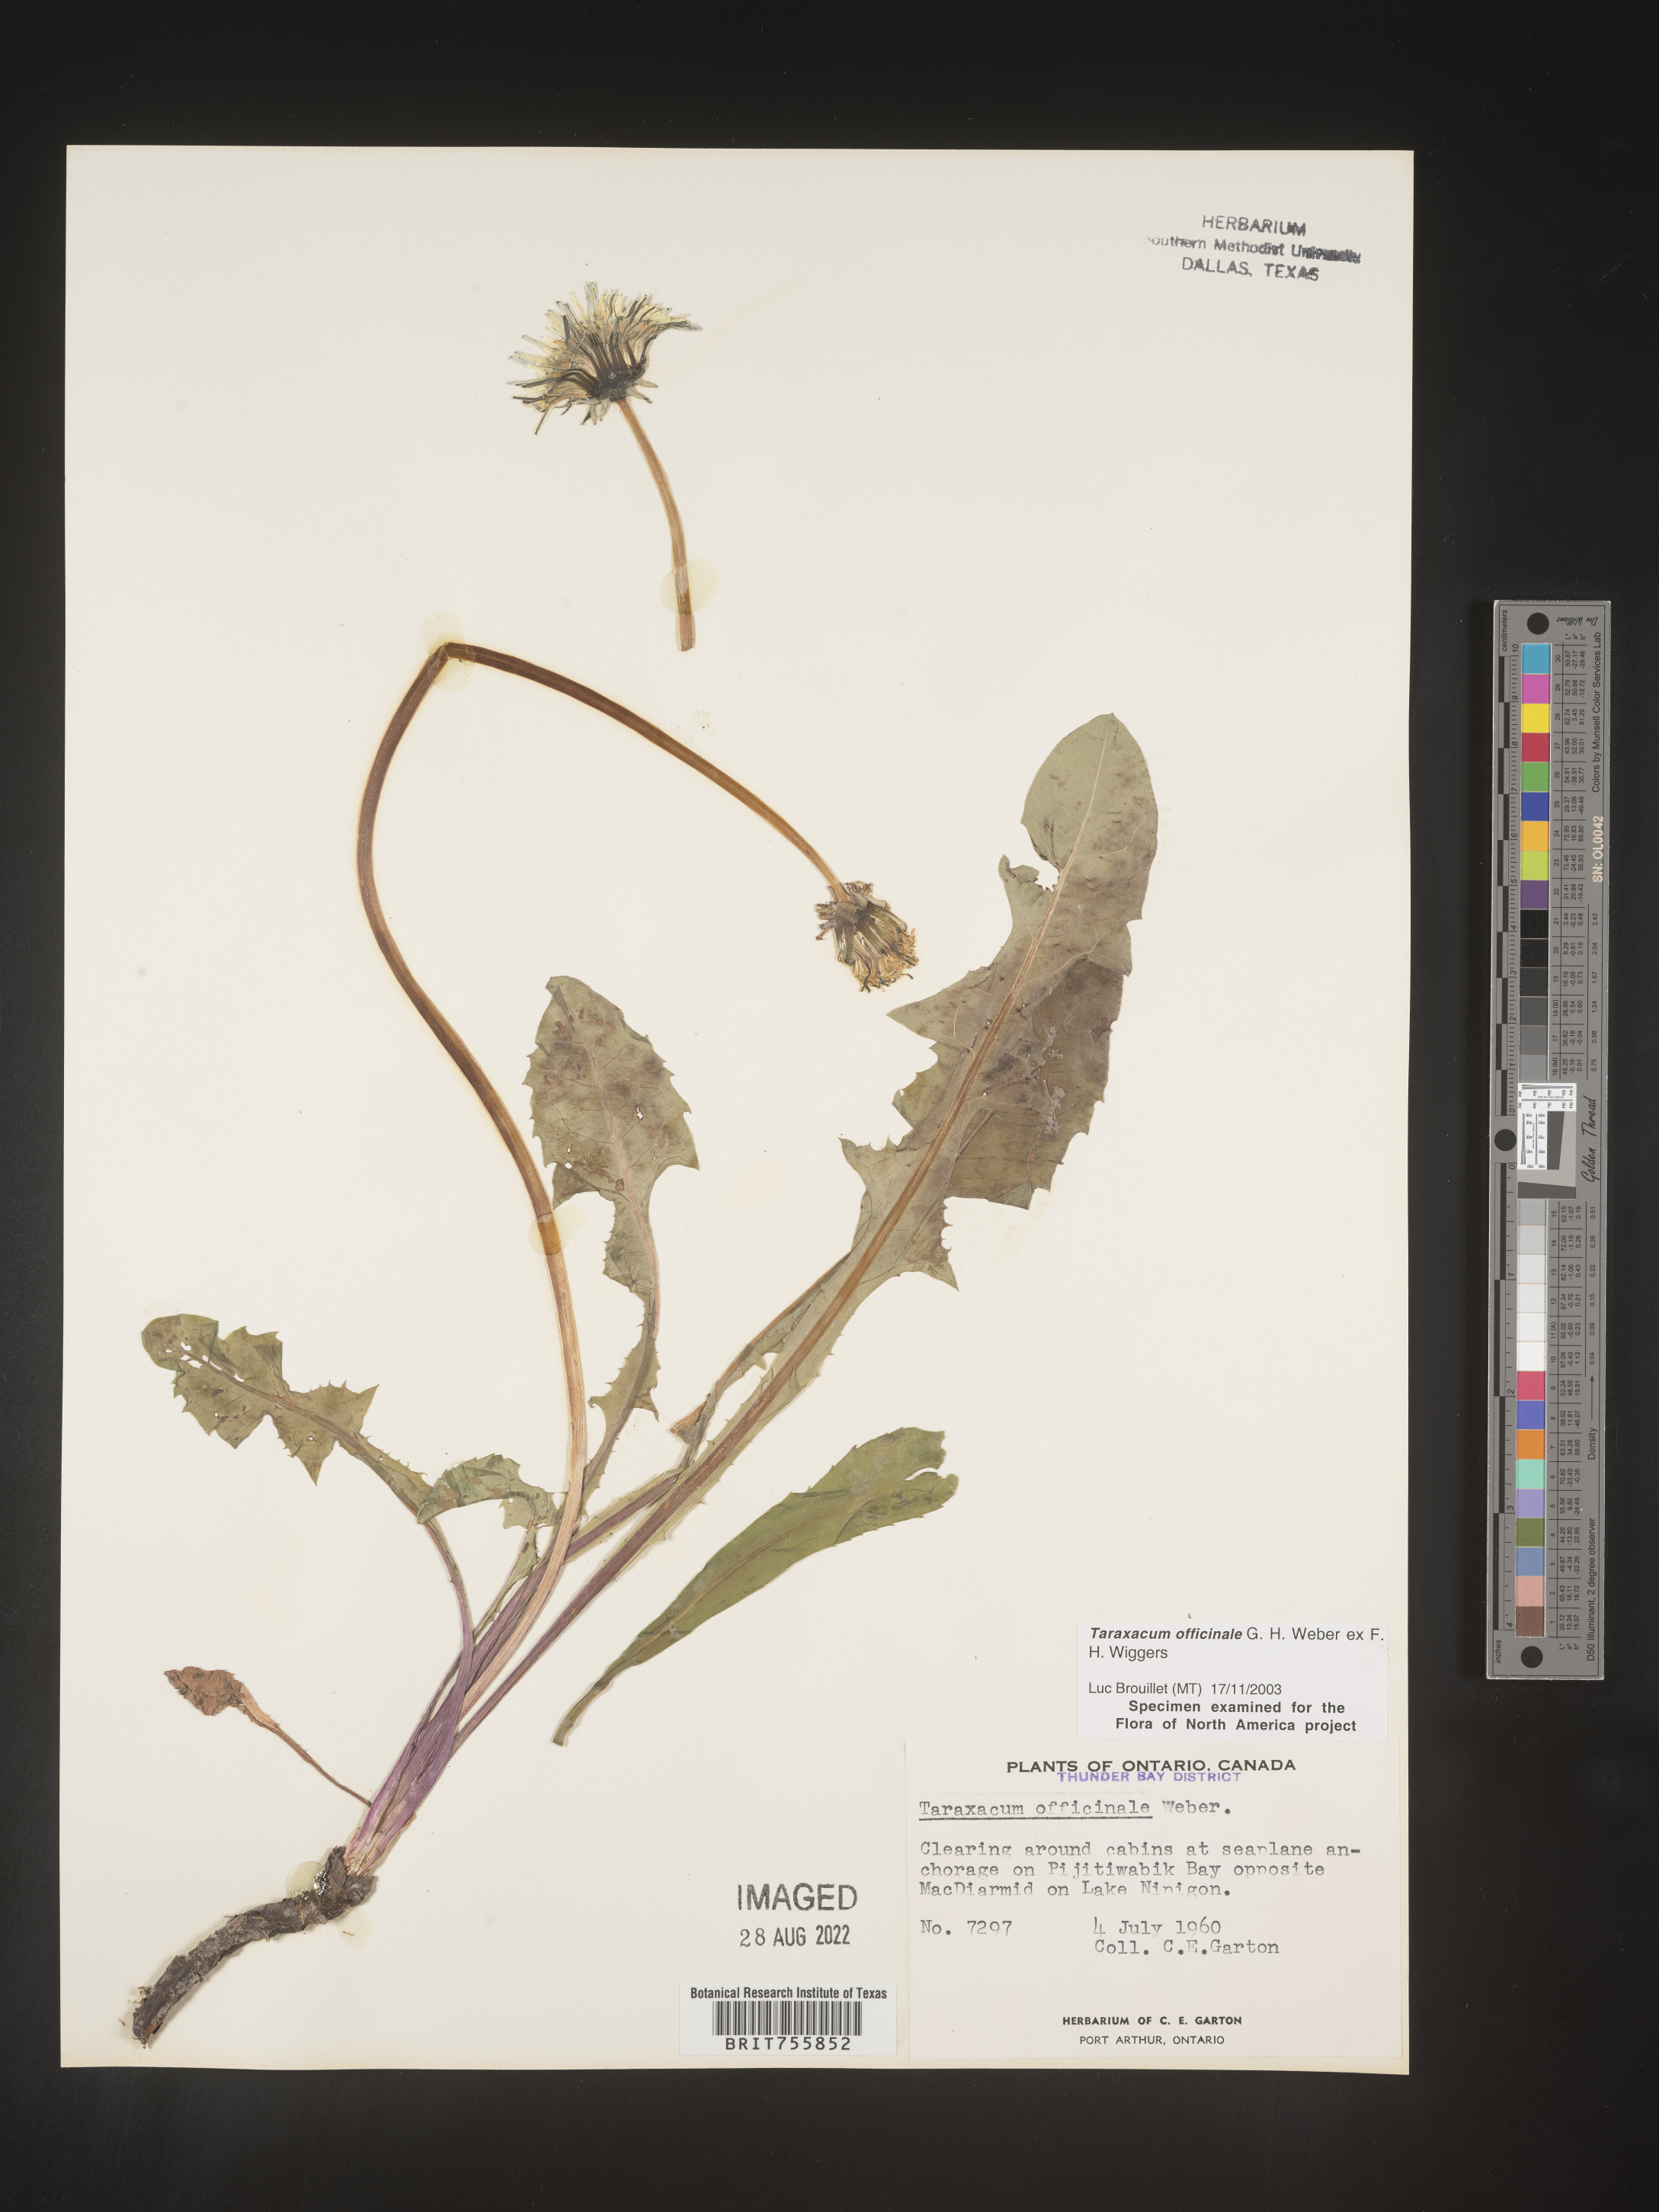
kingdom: Plantae
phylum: Tracheophyta
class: Magnoliopsida
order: Asterales
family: Asteraceae
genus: Taraxacum
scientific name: Taraxacum officinale
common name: Common dandelion
